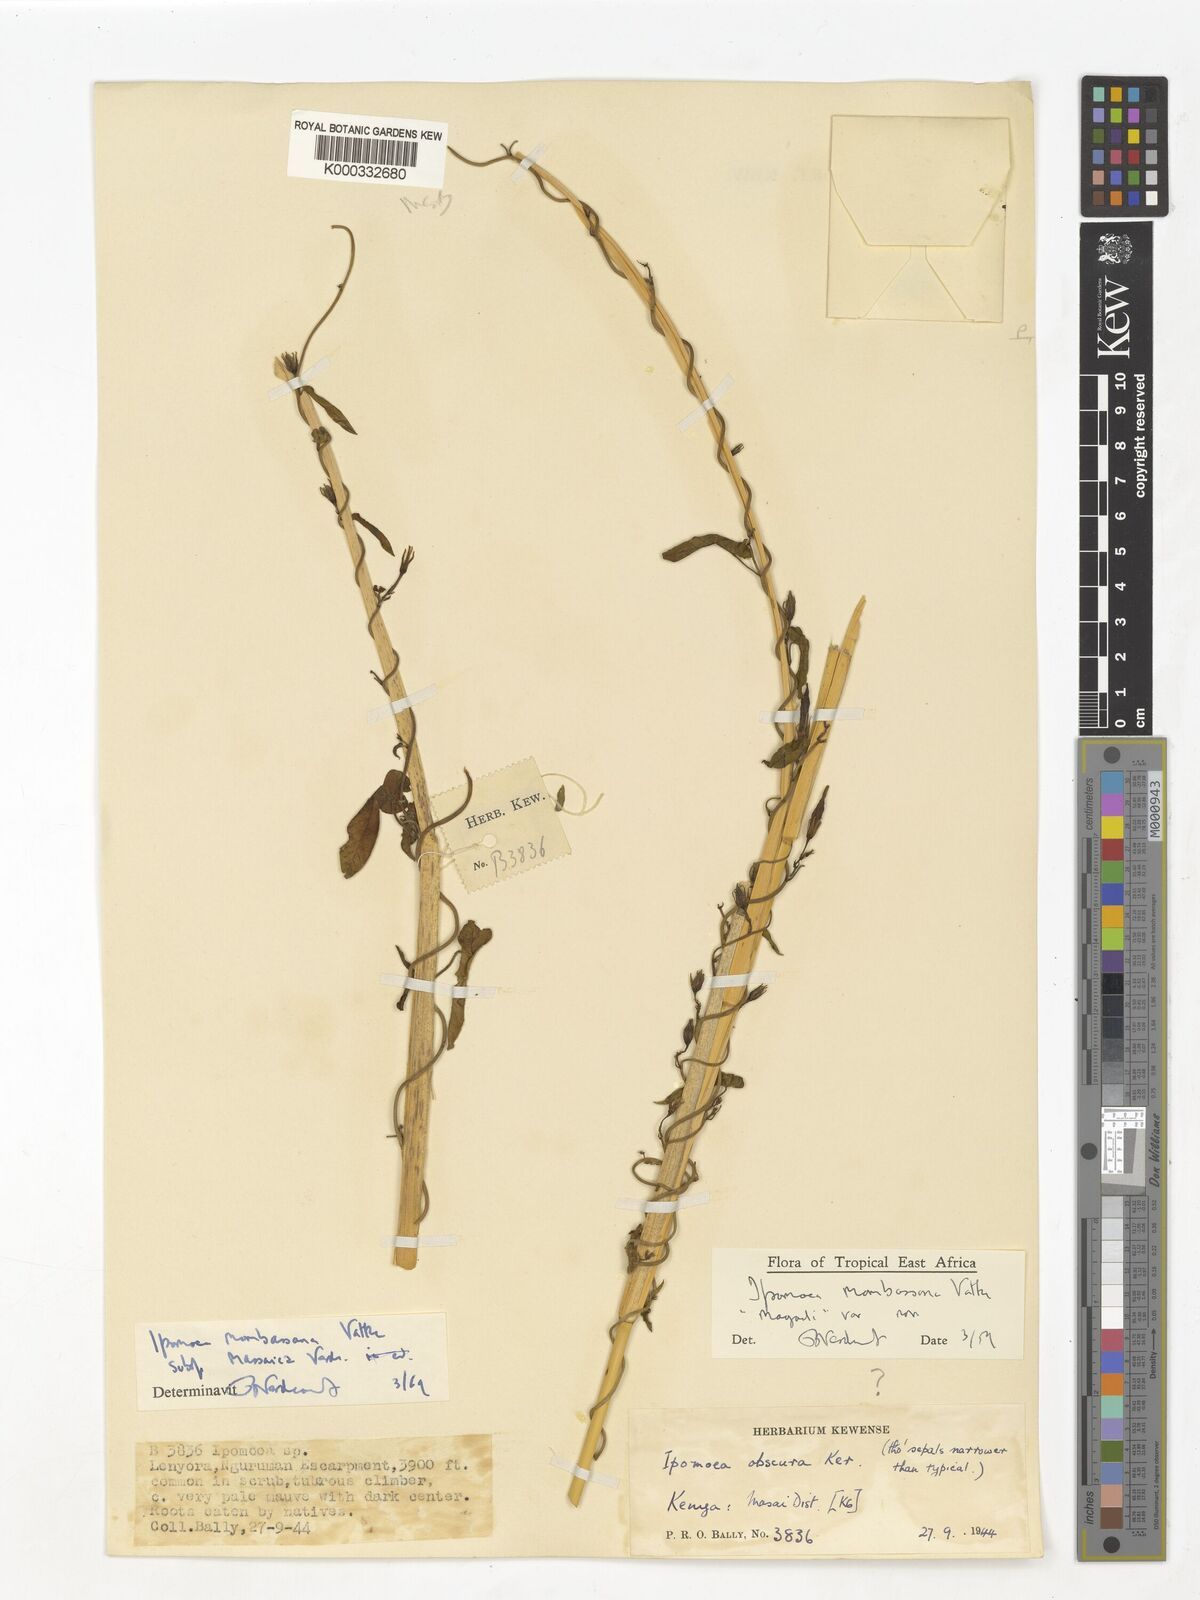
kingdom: Plantae
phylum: Tracheophyta
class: Magnoliopsida
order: Solanales
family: Convolvulaceae
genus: Ipomoea
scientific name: Ipomoea mombassana
